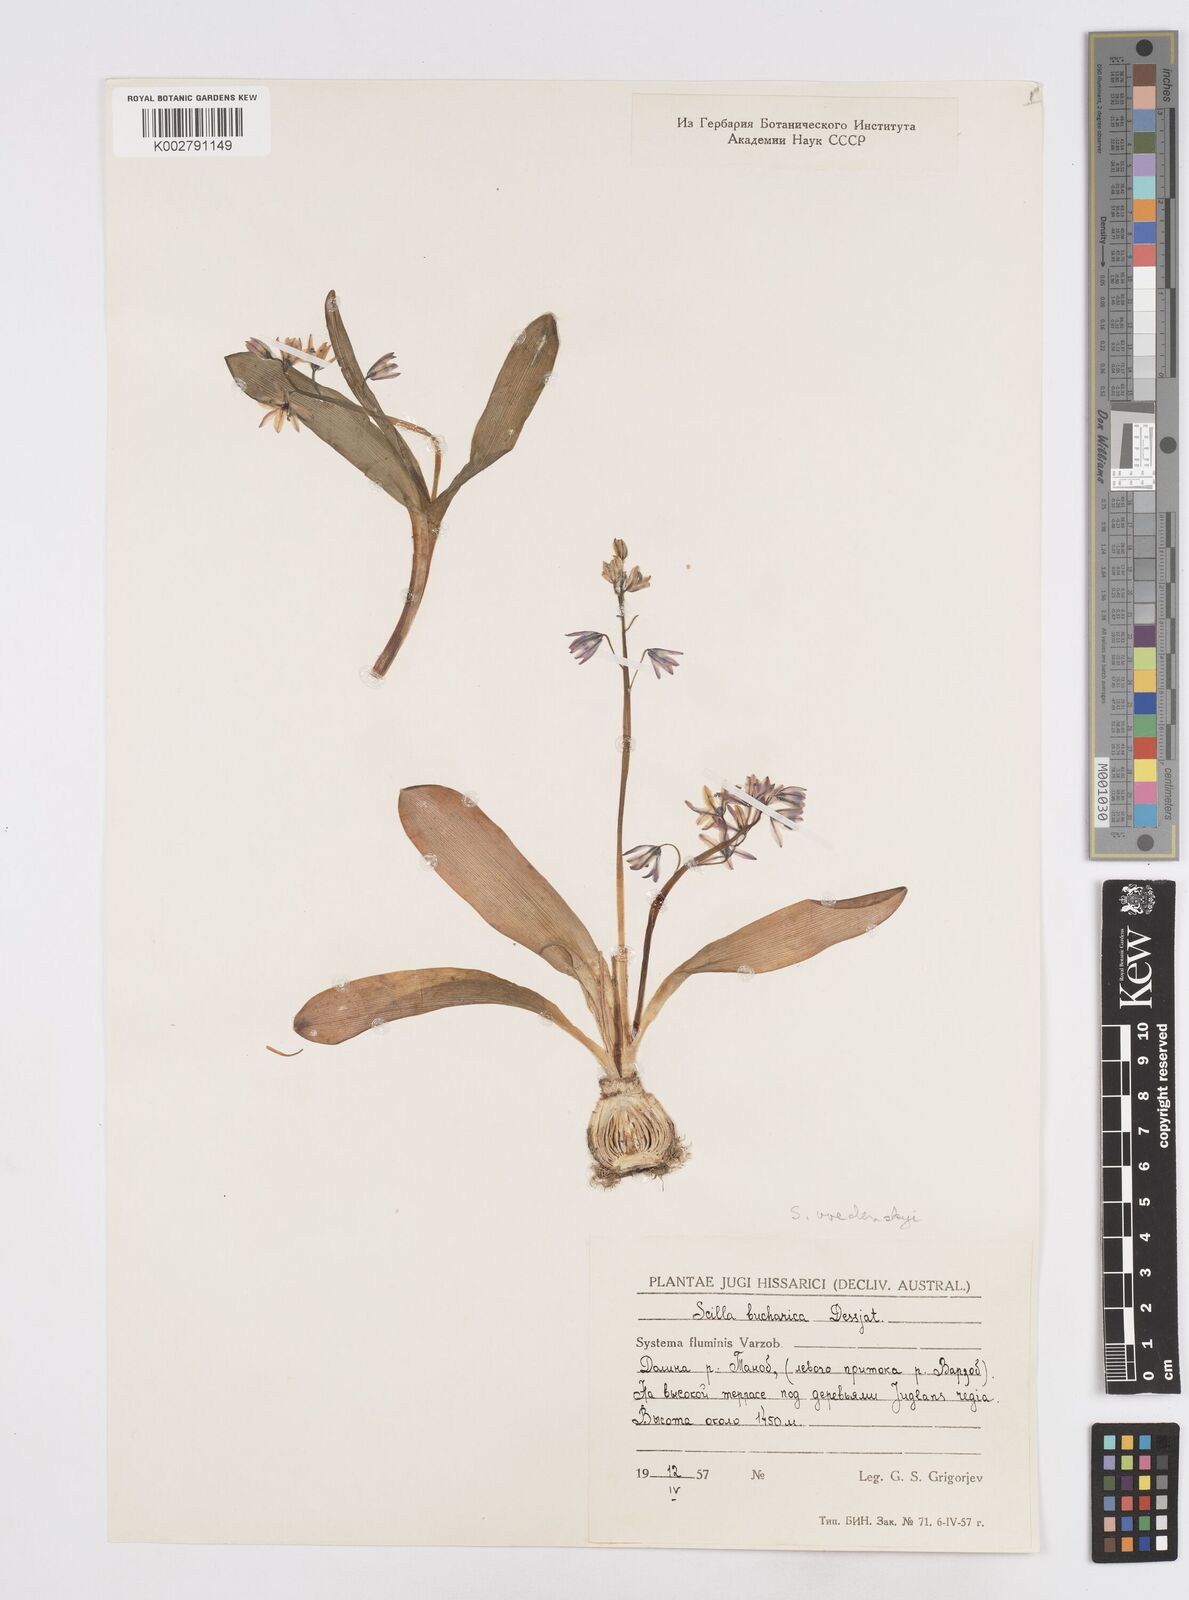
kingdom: Plantae
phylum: Tracheophyta
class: Liliopsida
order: Asparagales
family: Asparagaceae
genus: Fessia
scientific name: Fessia puschkinioides
